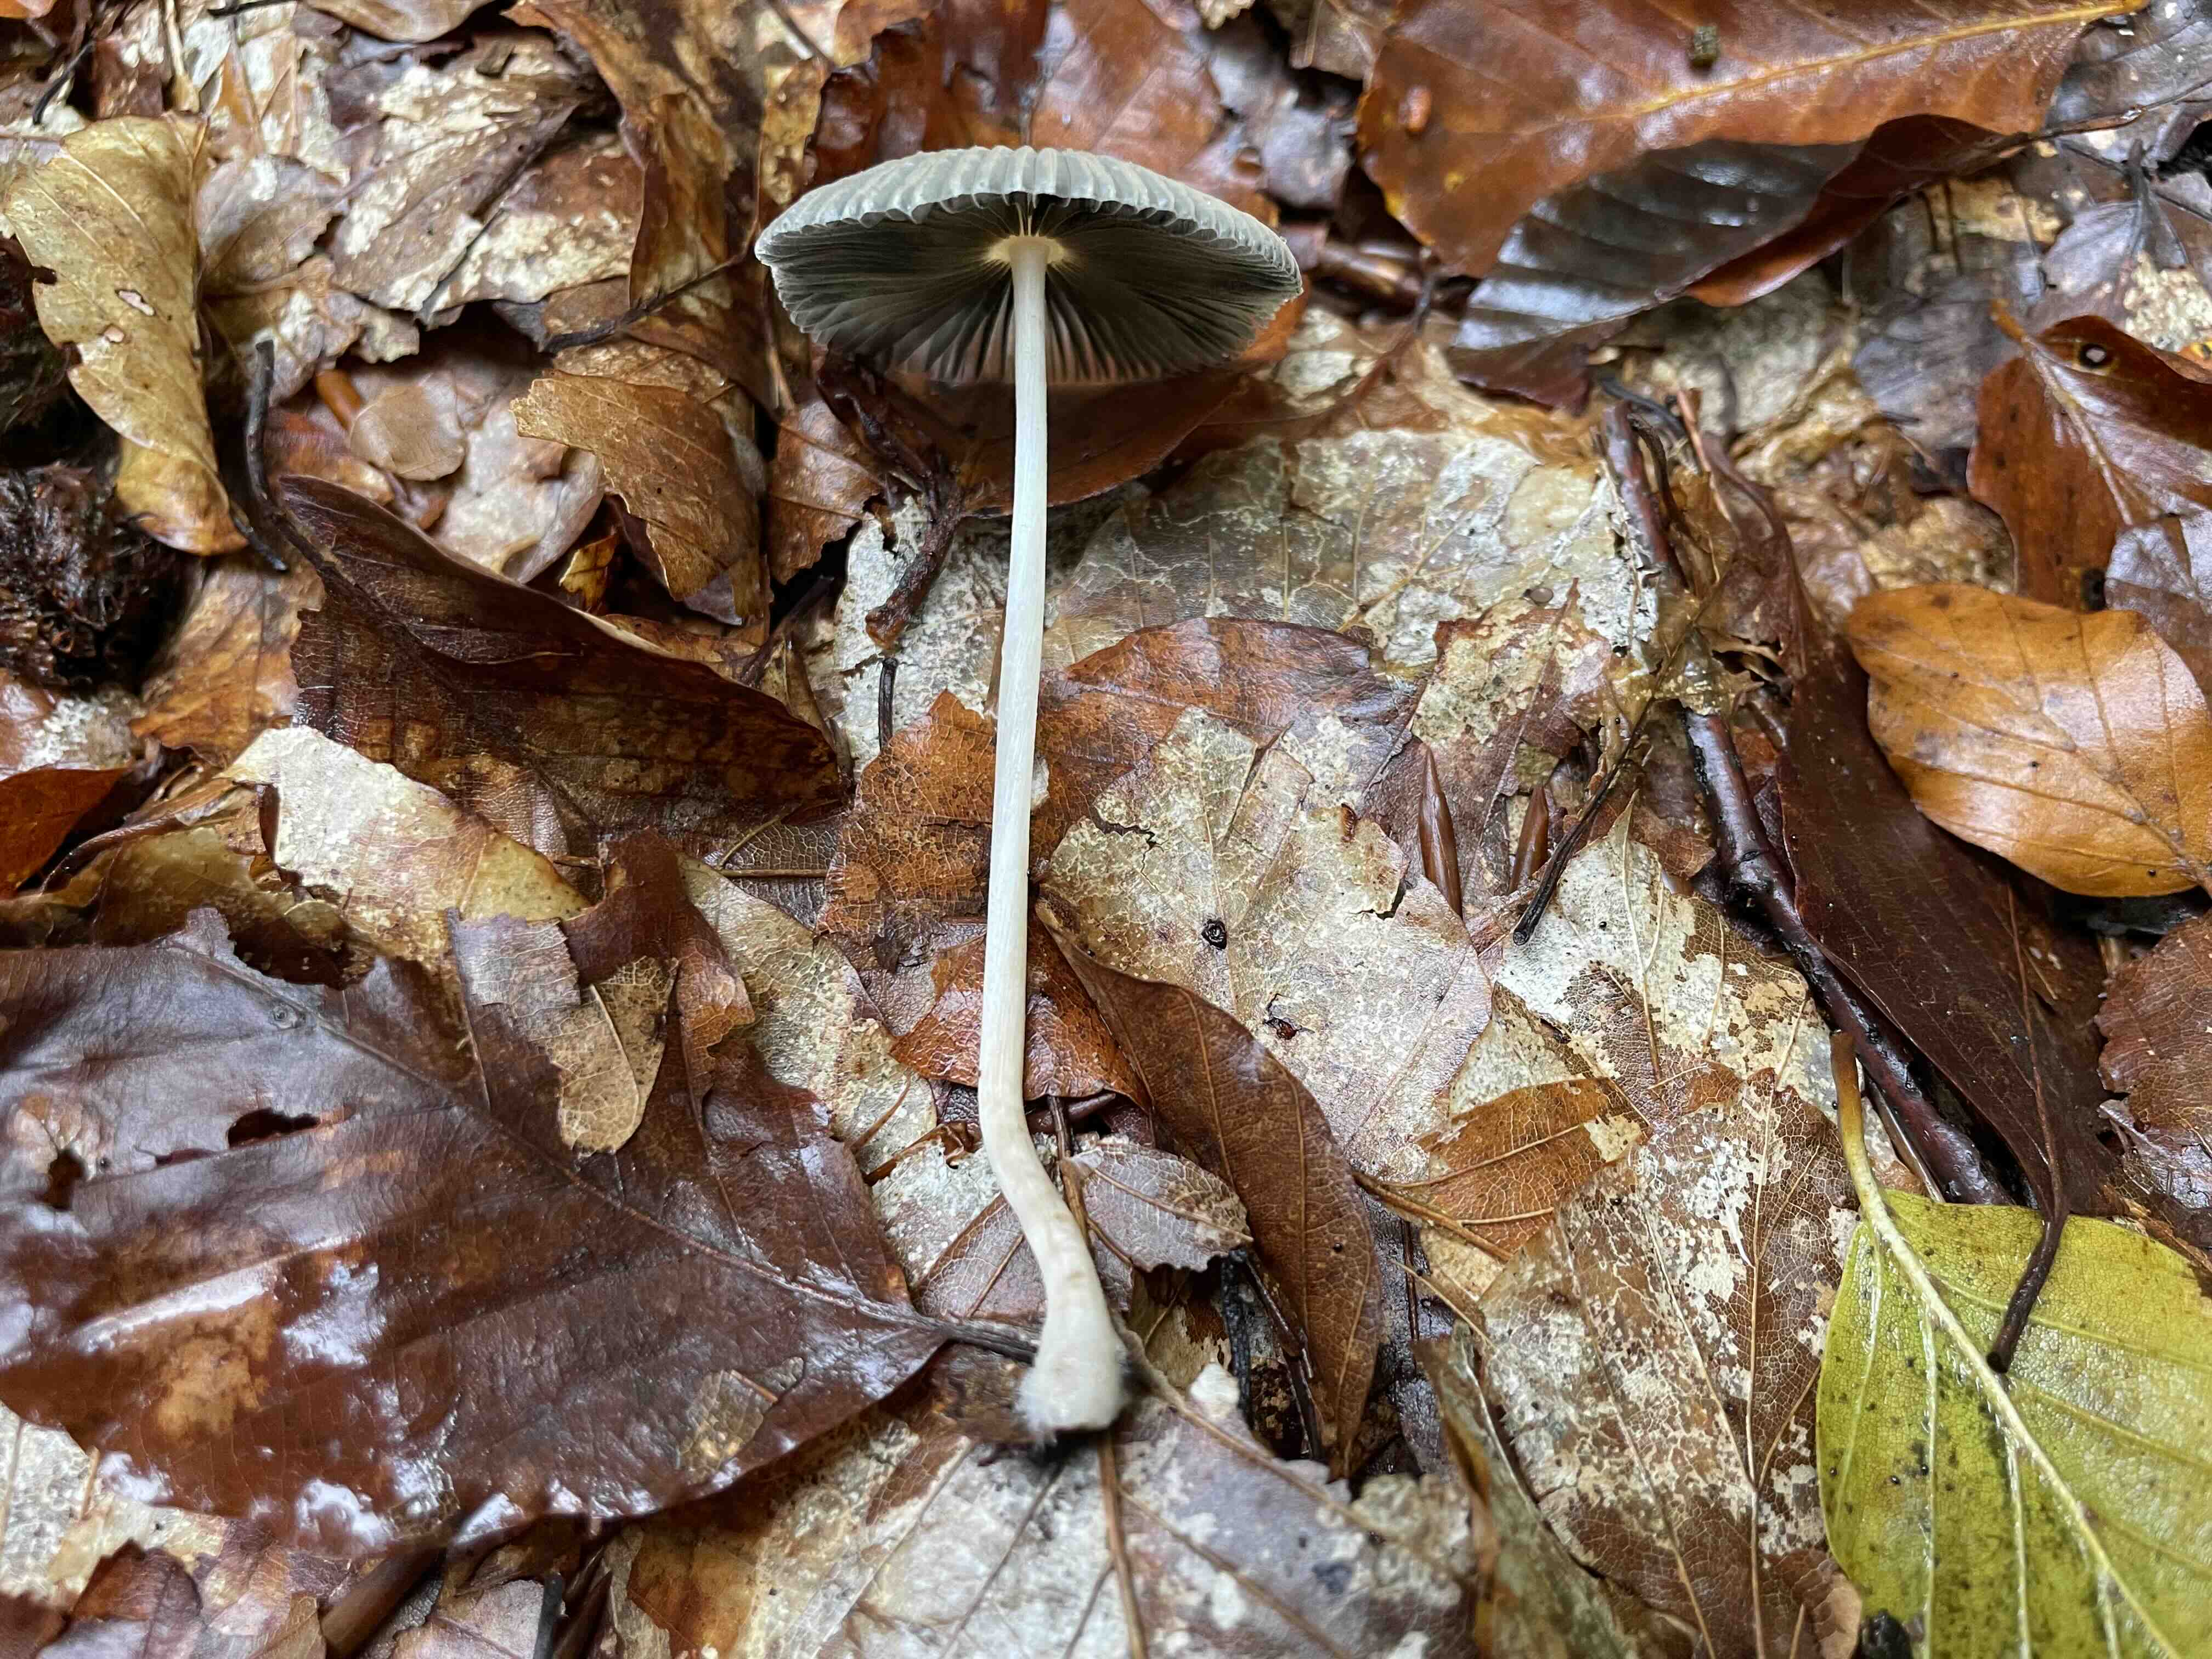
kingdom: Fungi
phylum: Basidiomycota
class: Agaricomycetes
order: Agaricales
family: Psathyrellaceae
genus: Parasola
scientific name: Parasola
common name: hjulhat
